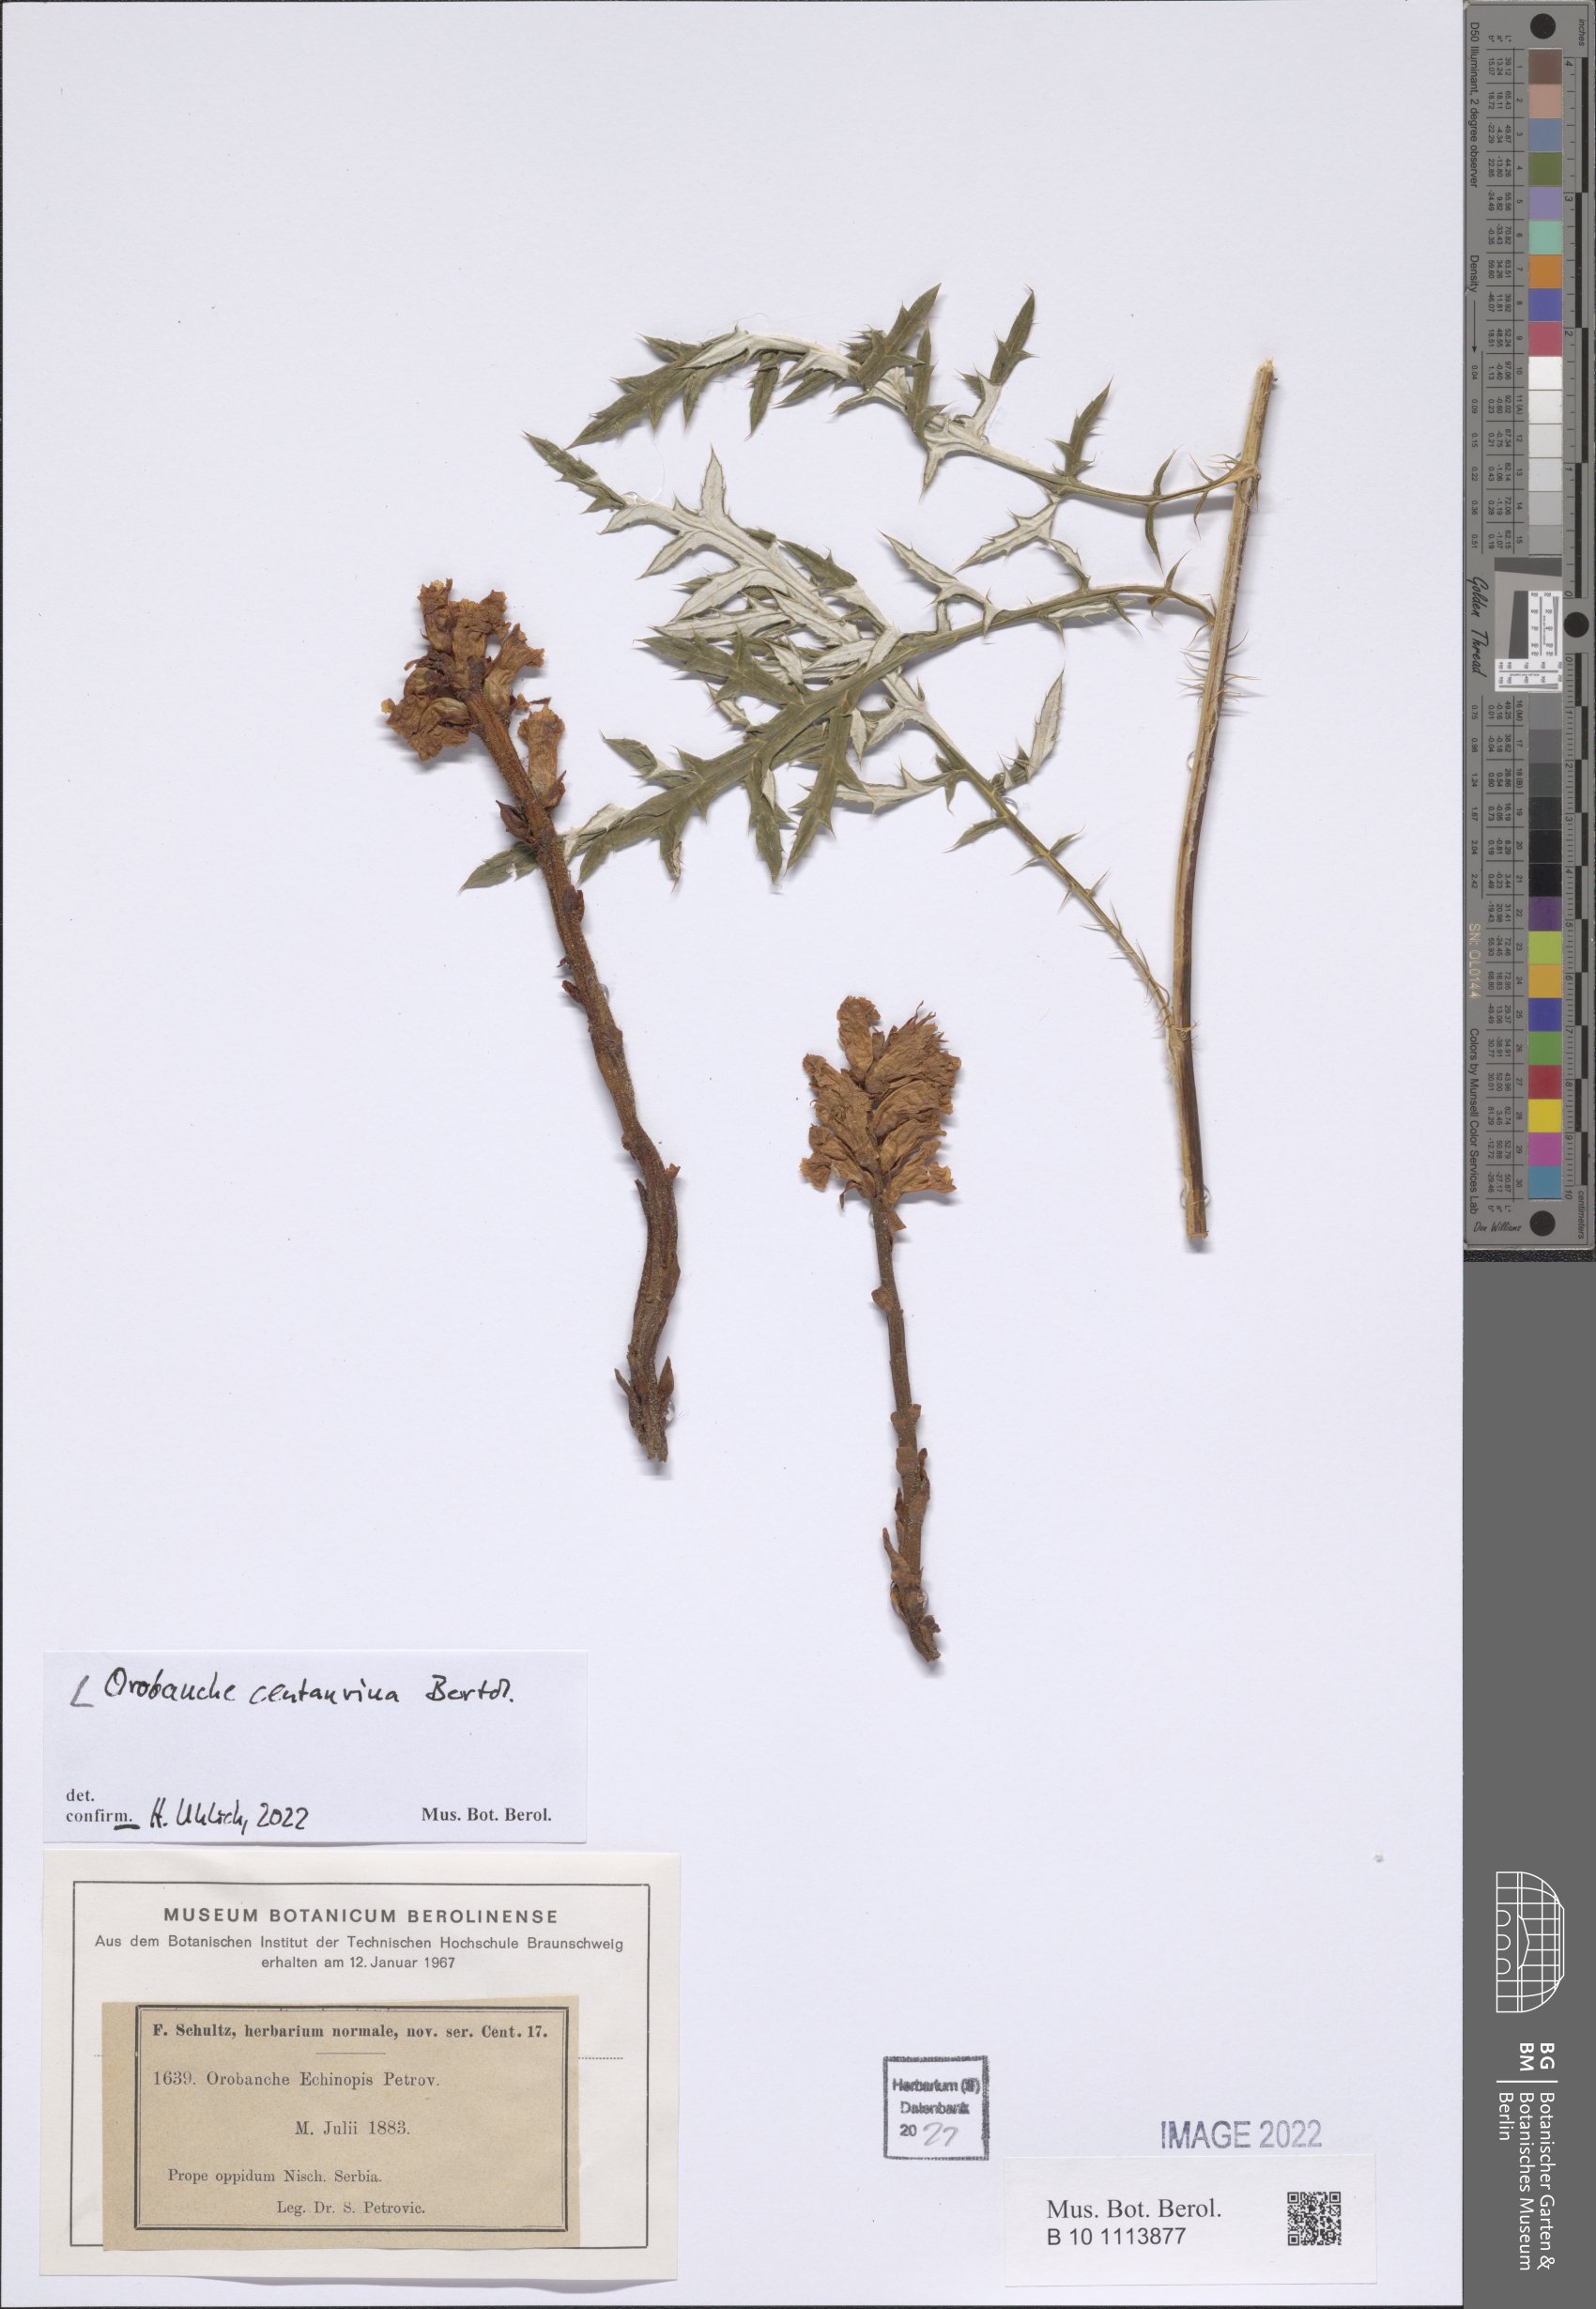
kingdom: Plantae
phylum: Tracheophyta
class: Magnoliopsida
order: Lamiales
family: Orobanchaceae
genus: Orobanche
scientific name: Orobanche centaurina
